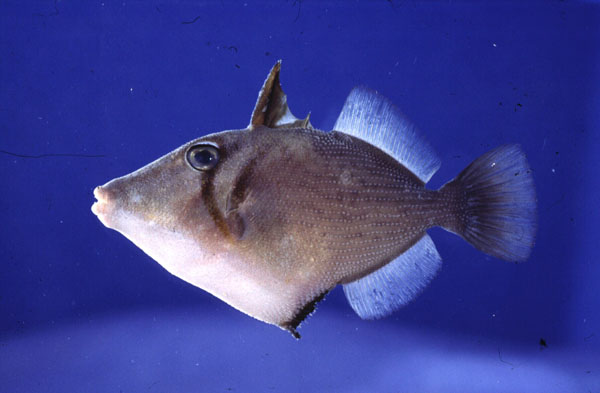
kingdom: Animalia
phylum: Chordata
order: Tetraodontiformes
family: Balistidae
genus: Sufflamen
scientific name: Sufflamen bursa
